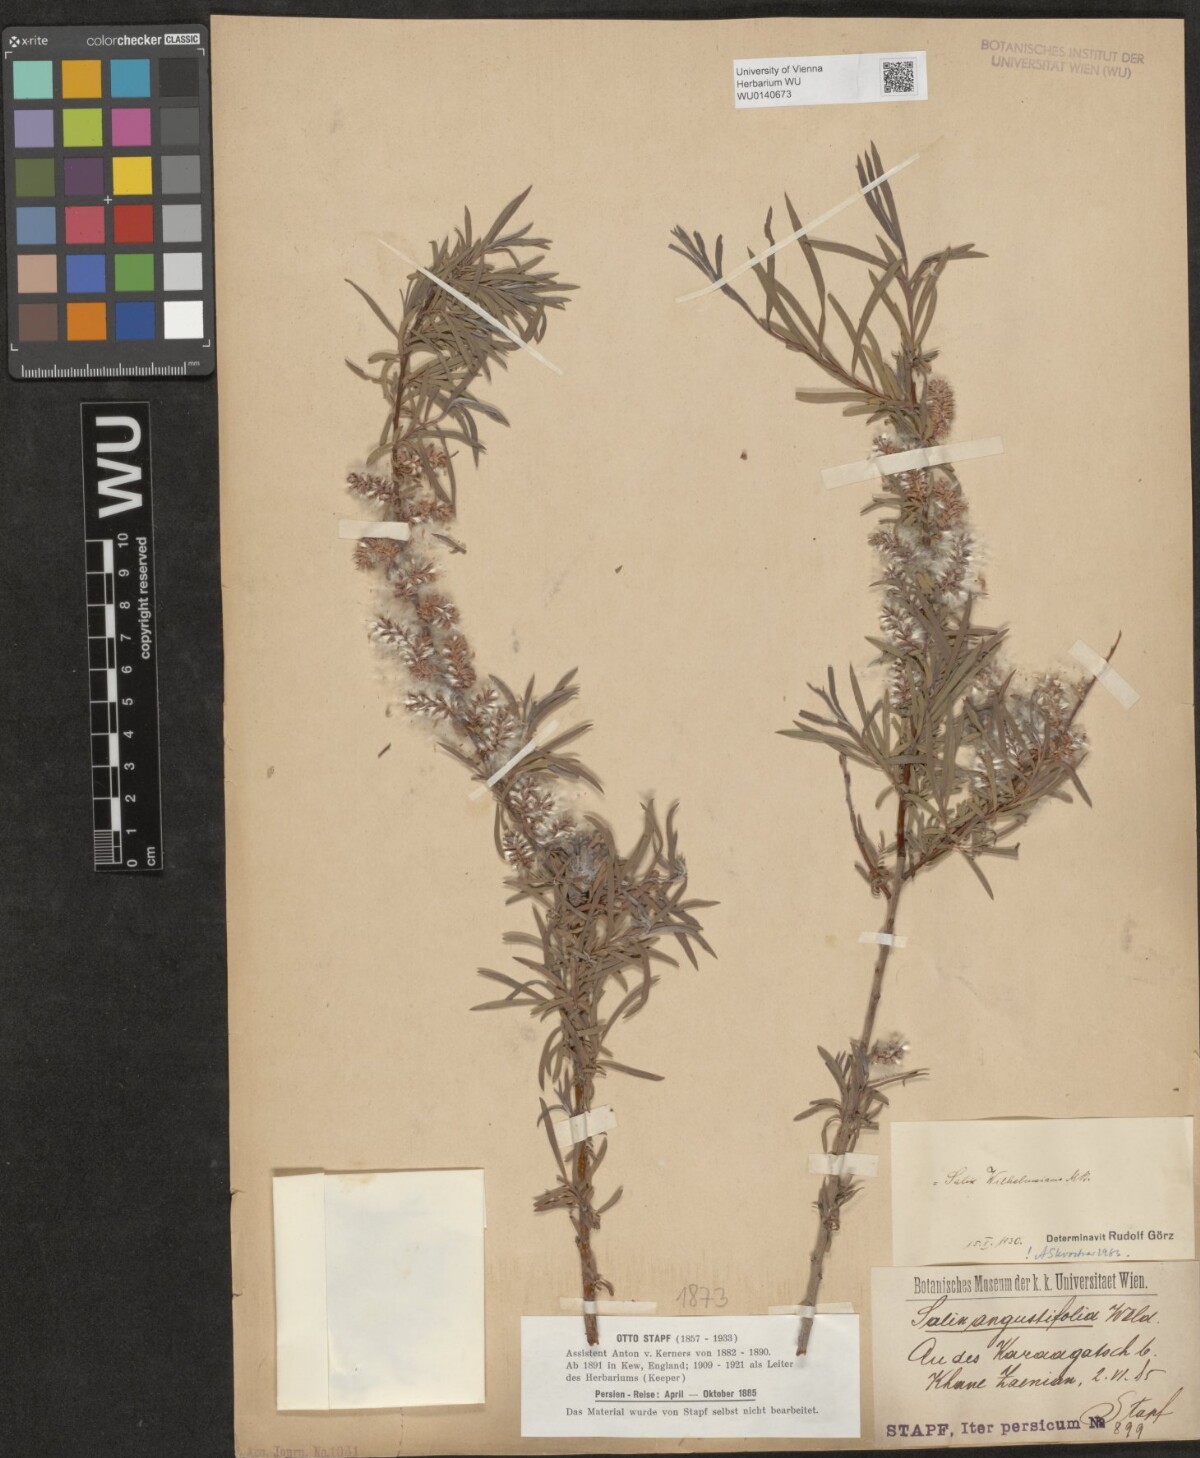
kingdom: Plantae
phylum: Tracheophyta
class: Magnoliopsida
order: Malpighiales
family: Salicaceae
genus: Salix
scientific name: Salix wilhelmsiana
